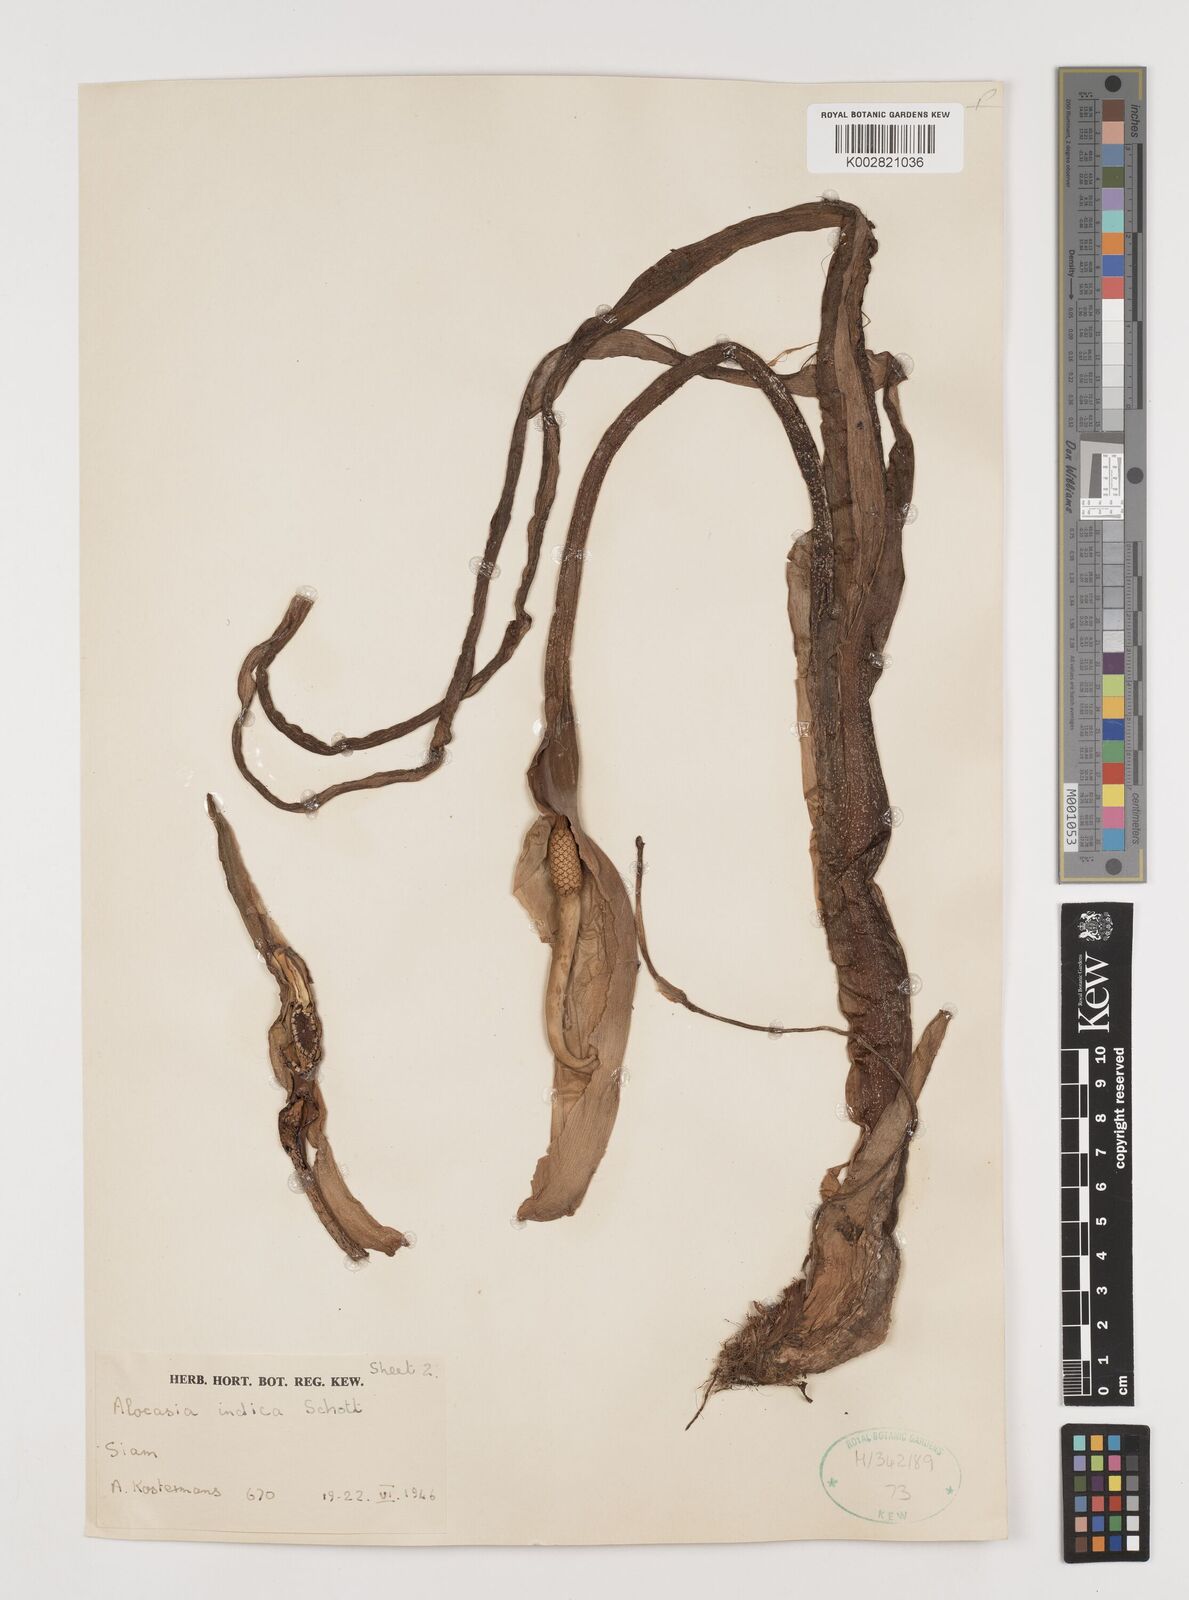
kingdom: Plantae
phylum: Tracheophyta
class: Liliopsida
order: Alismatales
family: Araceae
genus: Alocasia
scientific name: Alocasia macrorrhizos
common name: Giant taro
